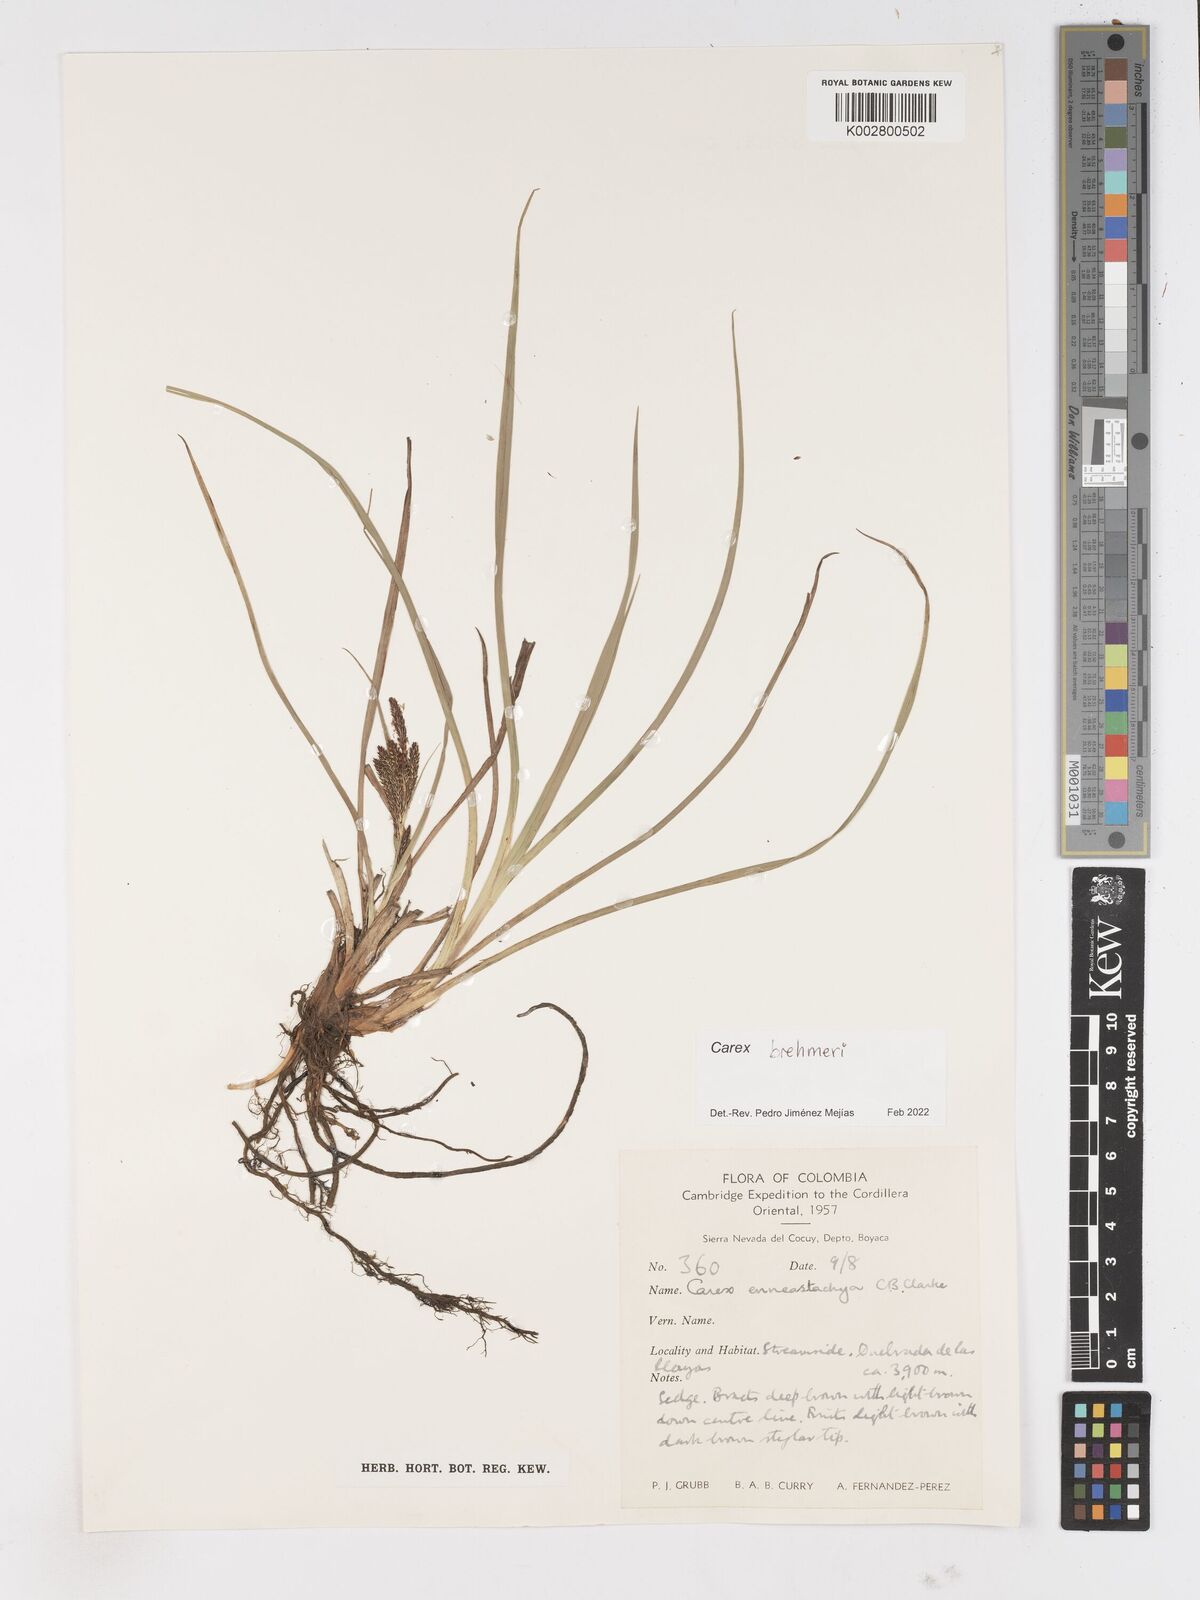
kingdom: Plantae
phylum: Tracheophyta
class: Liliopsida
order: Poales
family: Cyperaceae
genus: Carex
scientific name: Carex enneastachya
